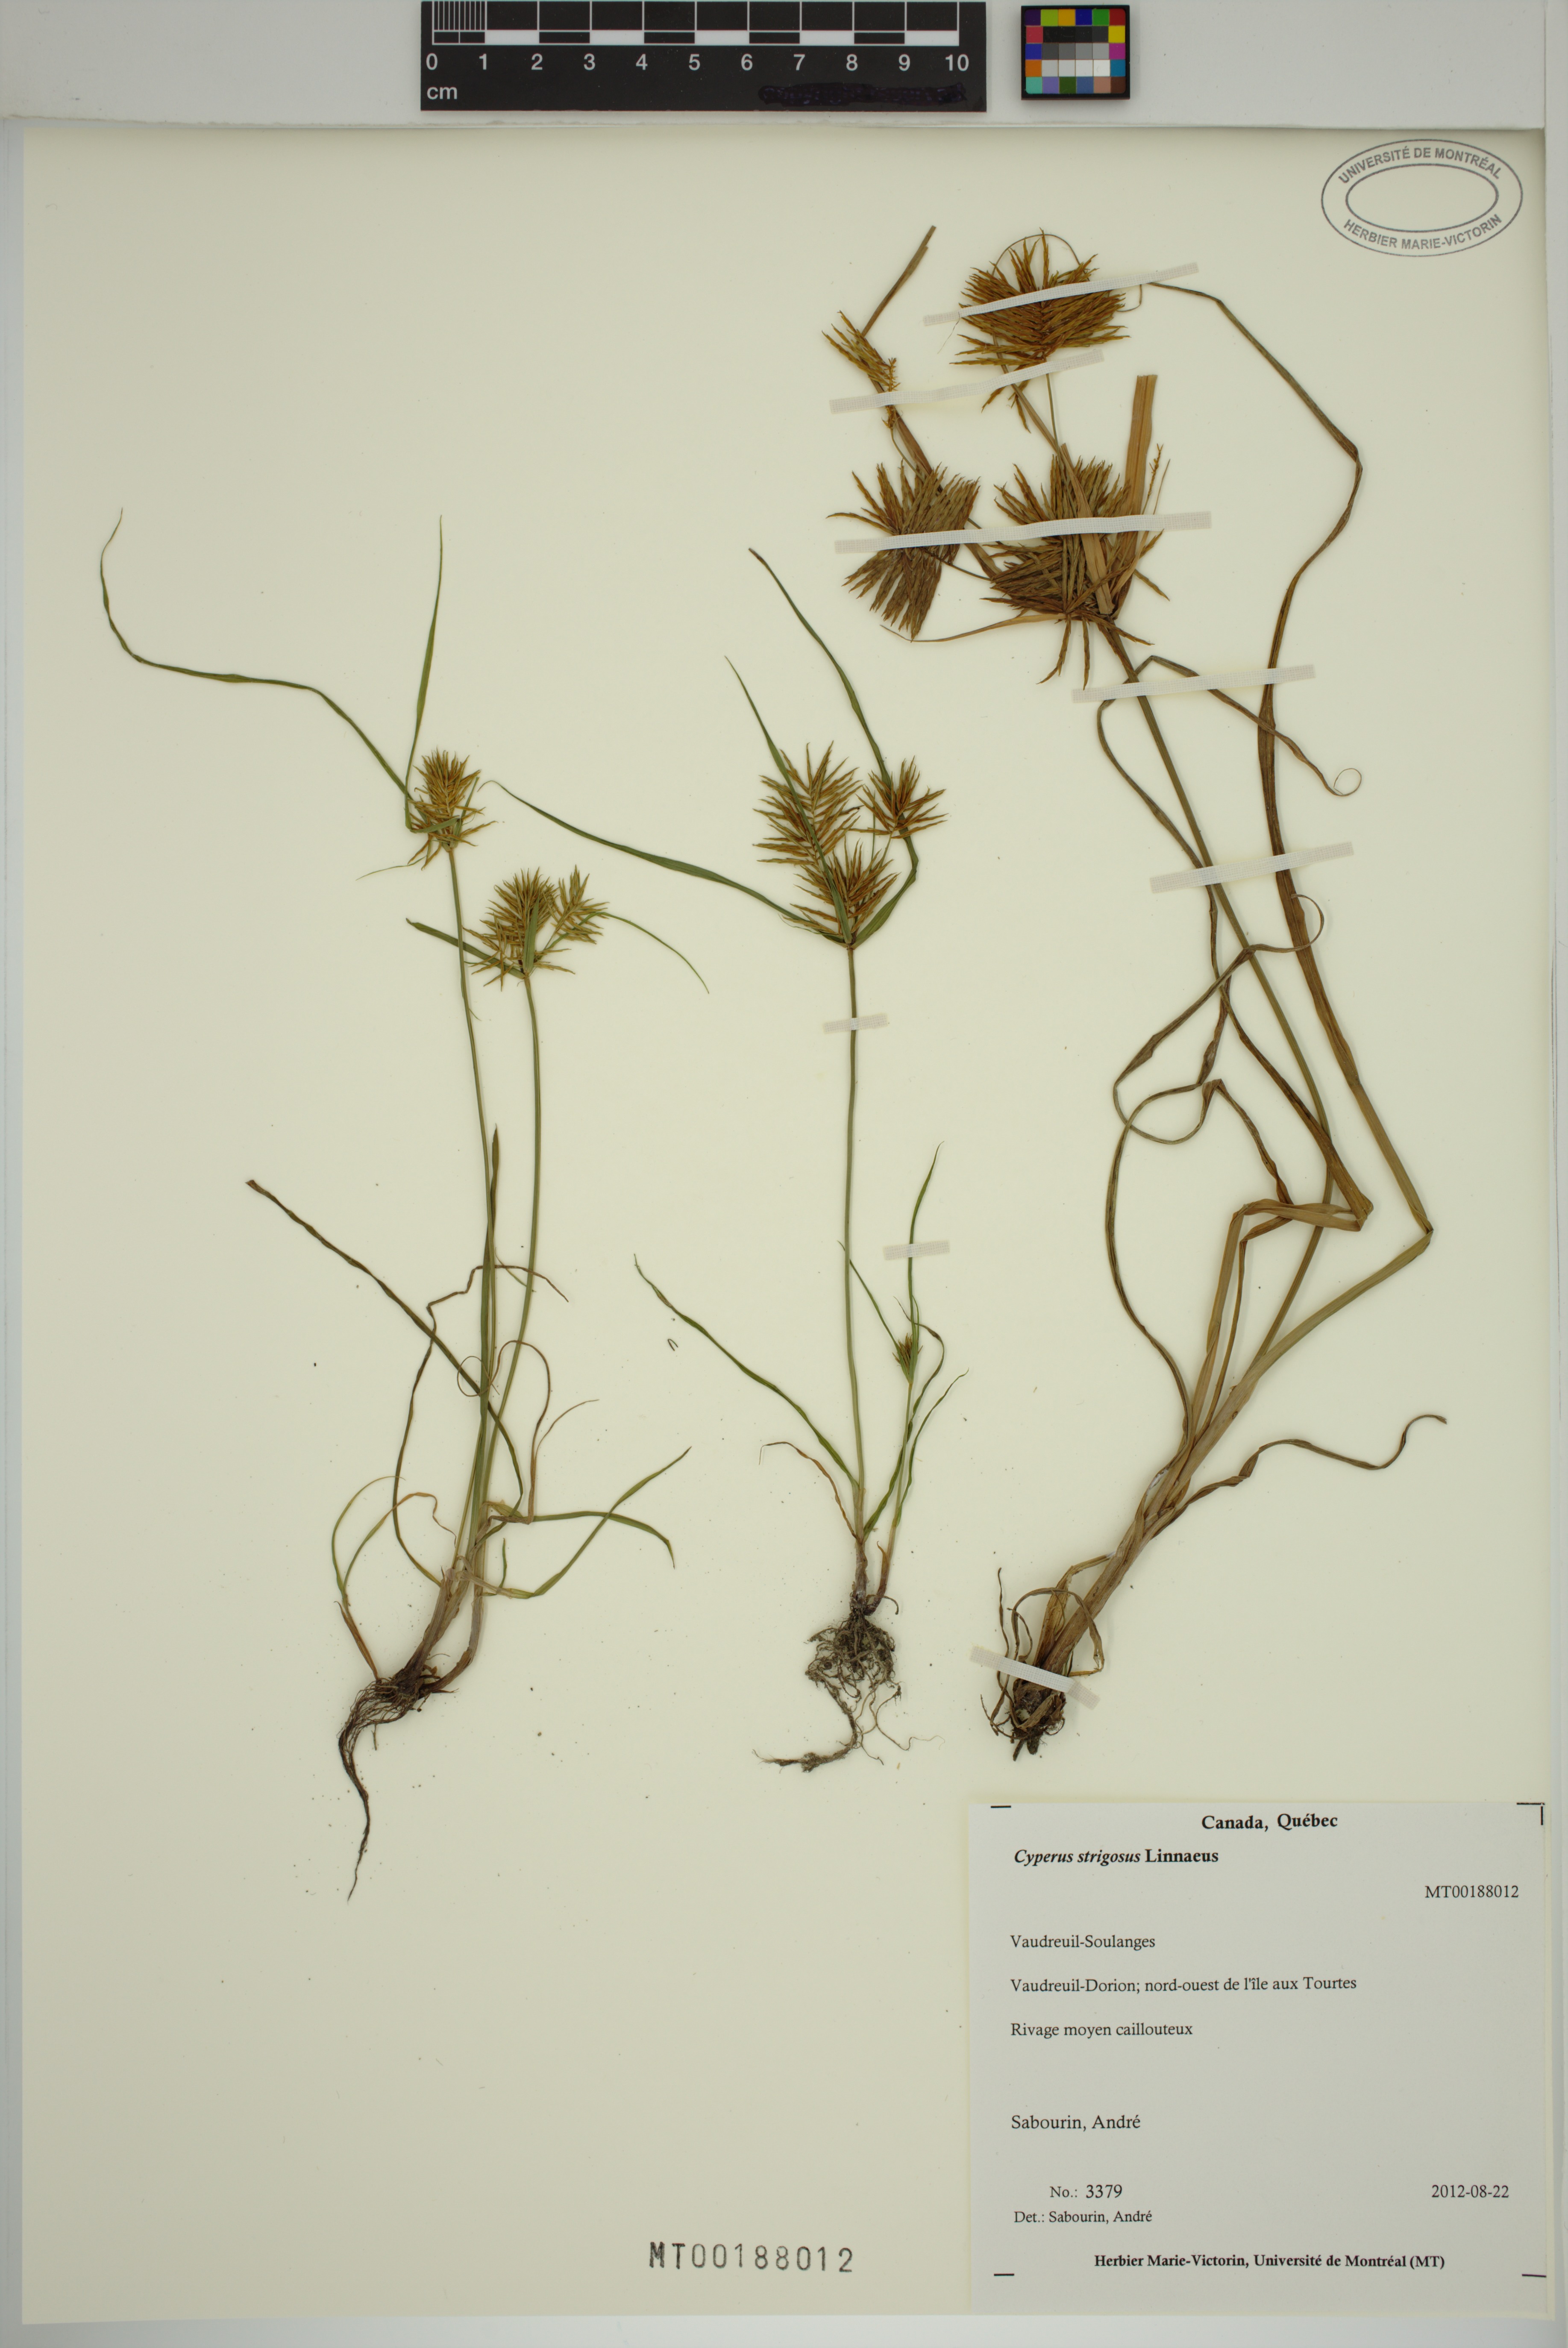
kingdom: Plantae
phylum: Tracheophyta
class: Liliopsida
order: Poales
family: Cyperaceae
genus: Cyperus
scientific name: Cyperus strigosus
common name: False nutsedge
